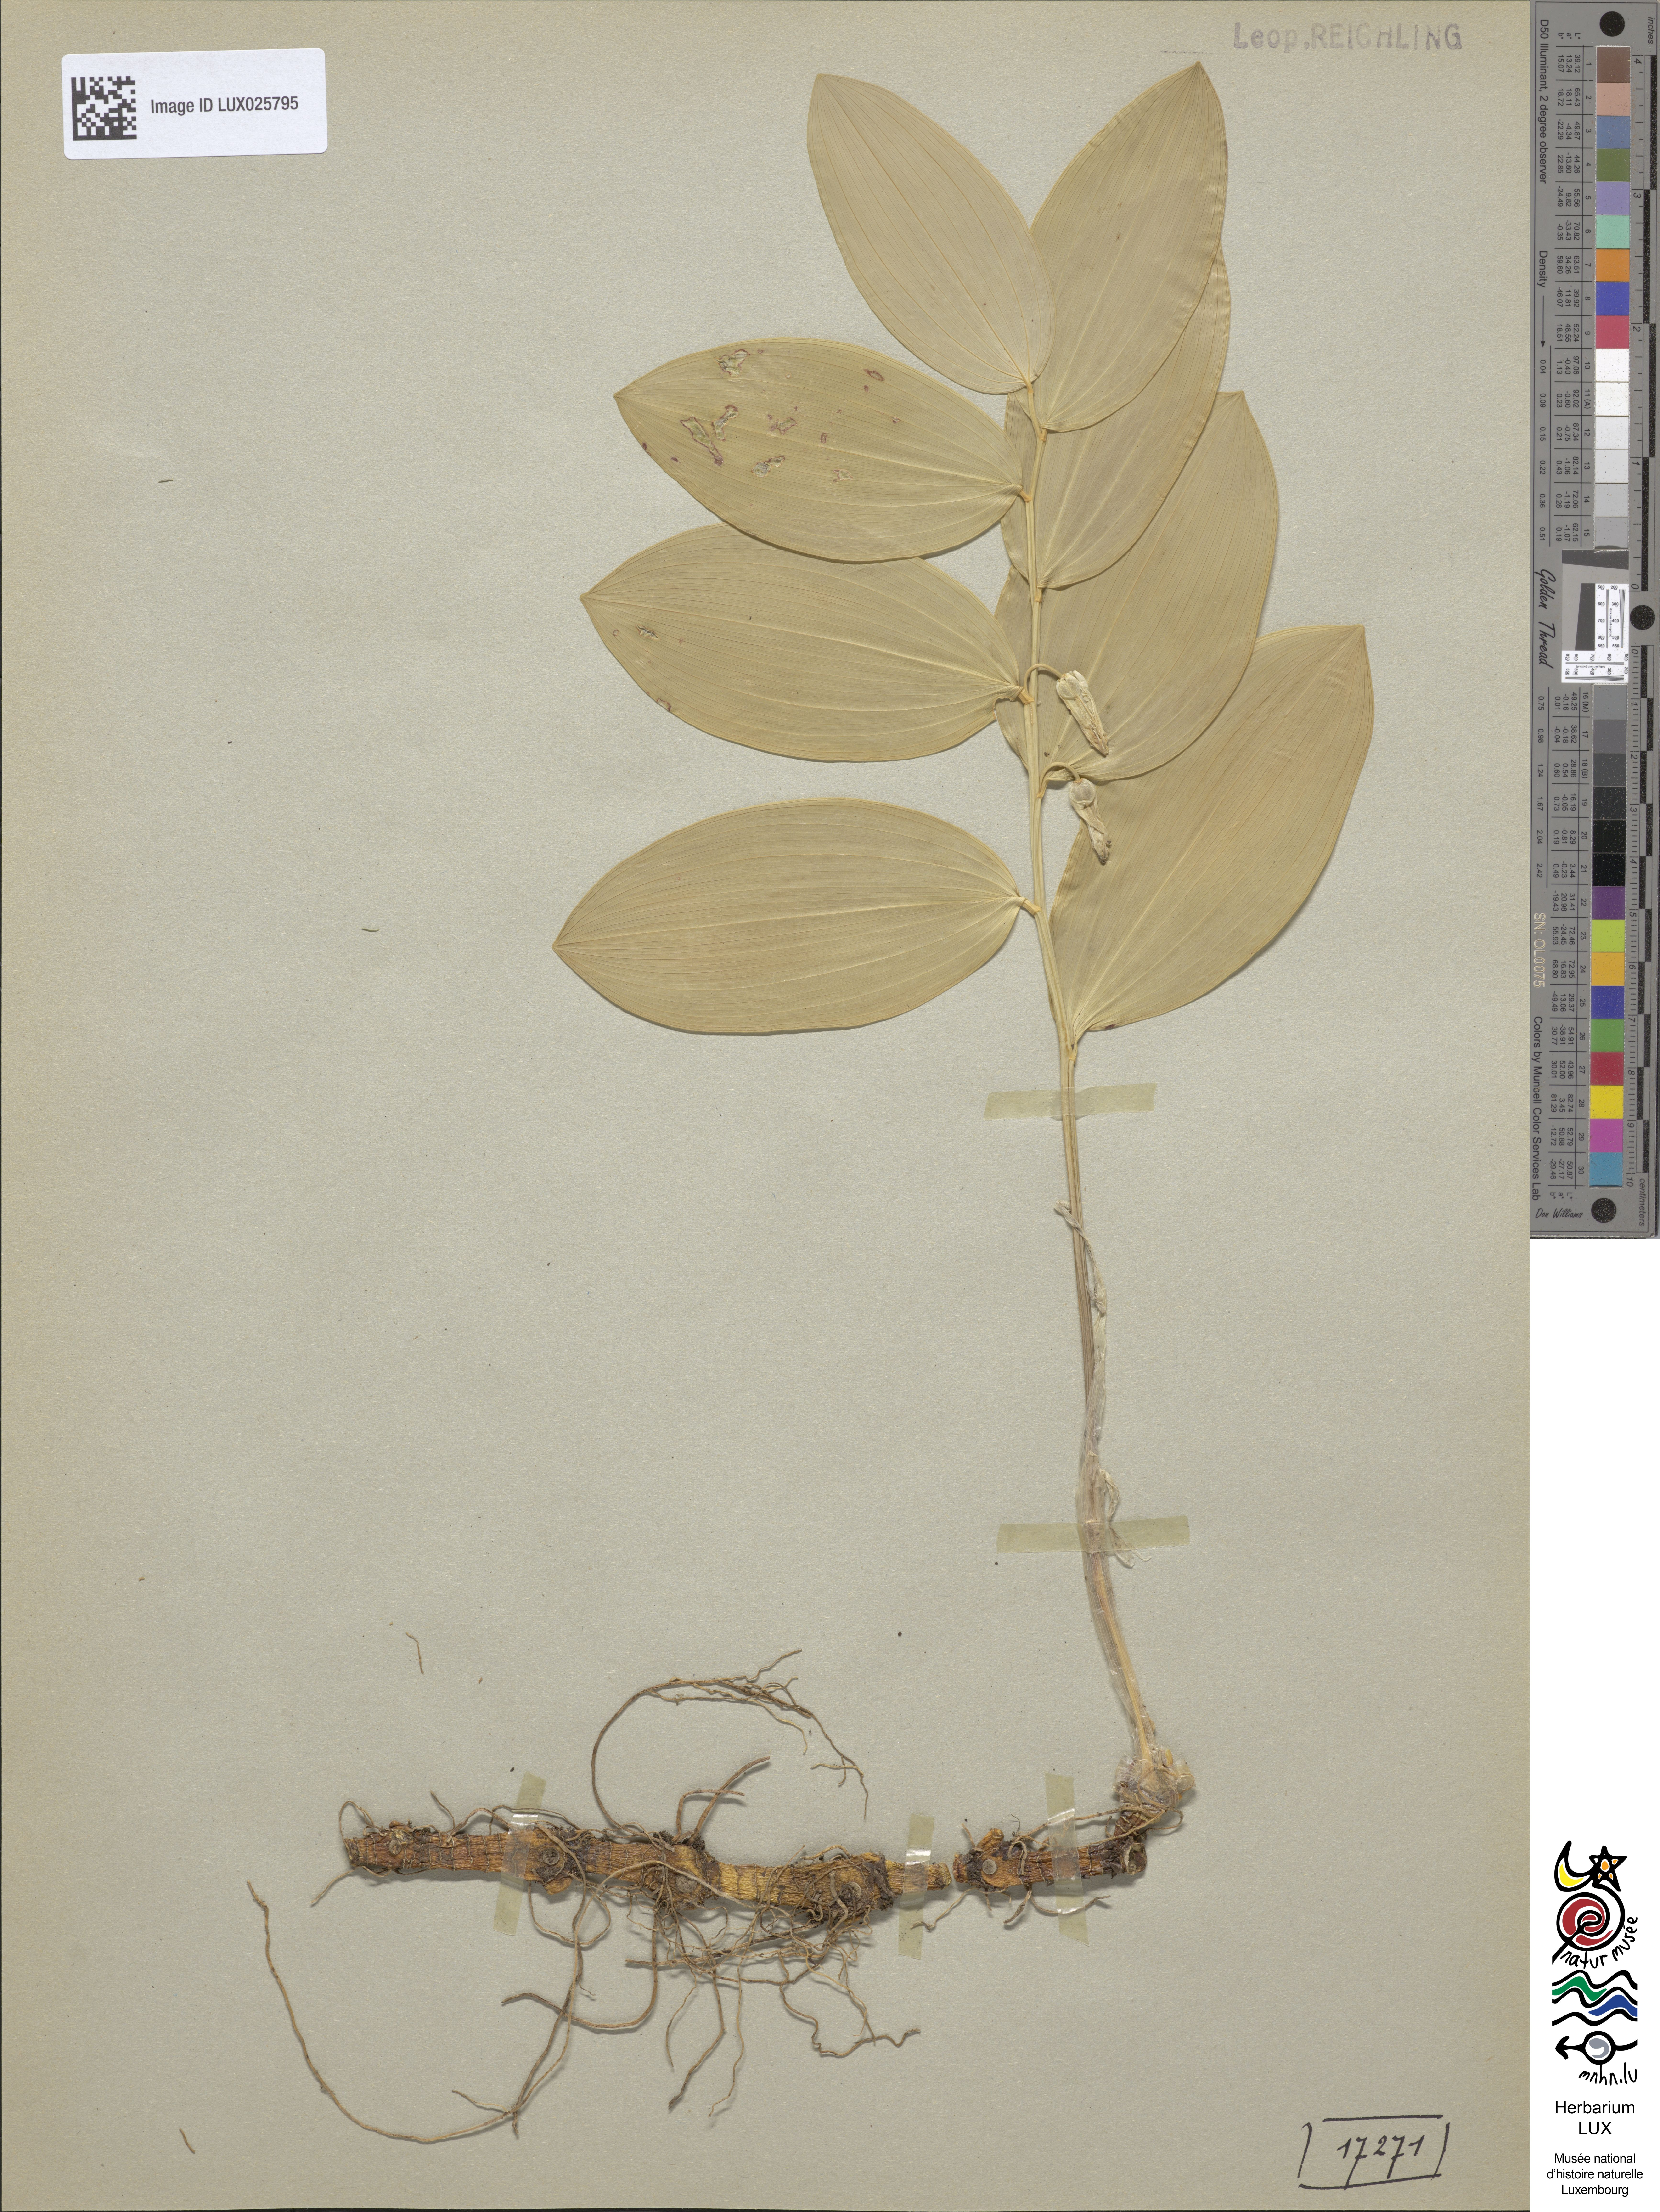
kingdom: Plantae
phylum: Tracheophyta
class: Liliopsida
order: Asparagales
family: Asparagaceae
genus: Polygonatum
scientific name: Polygonatum odoratum
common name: Angular solomon's-seal
